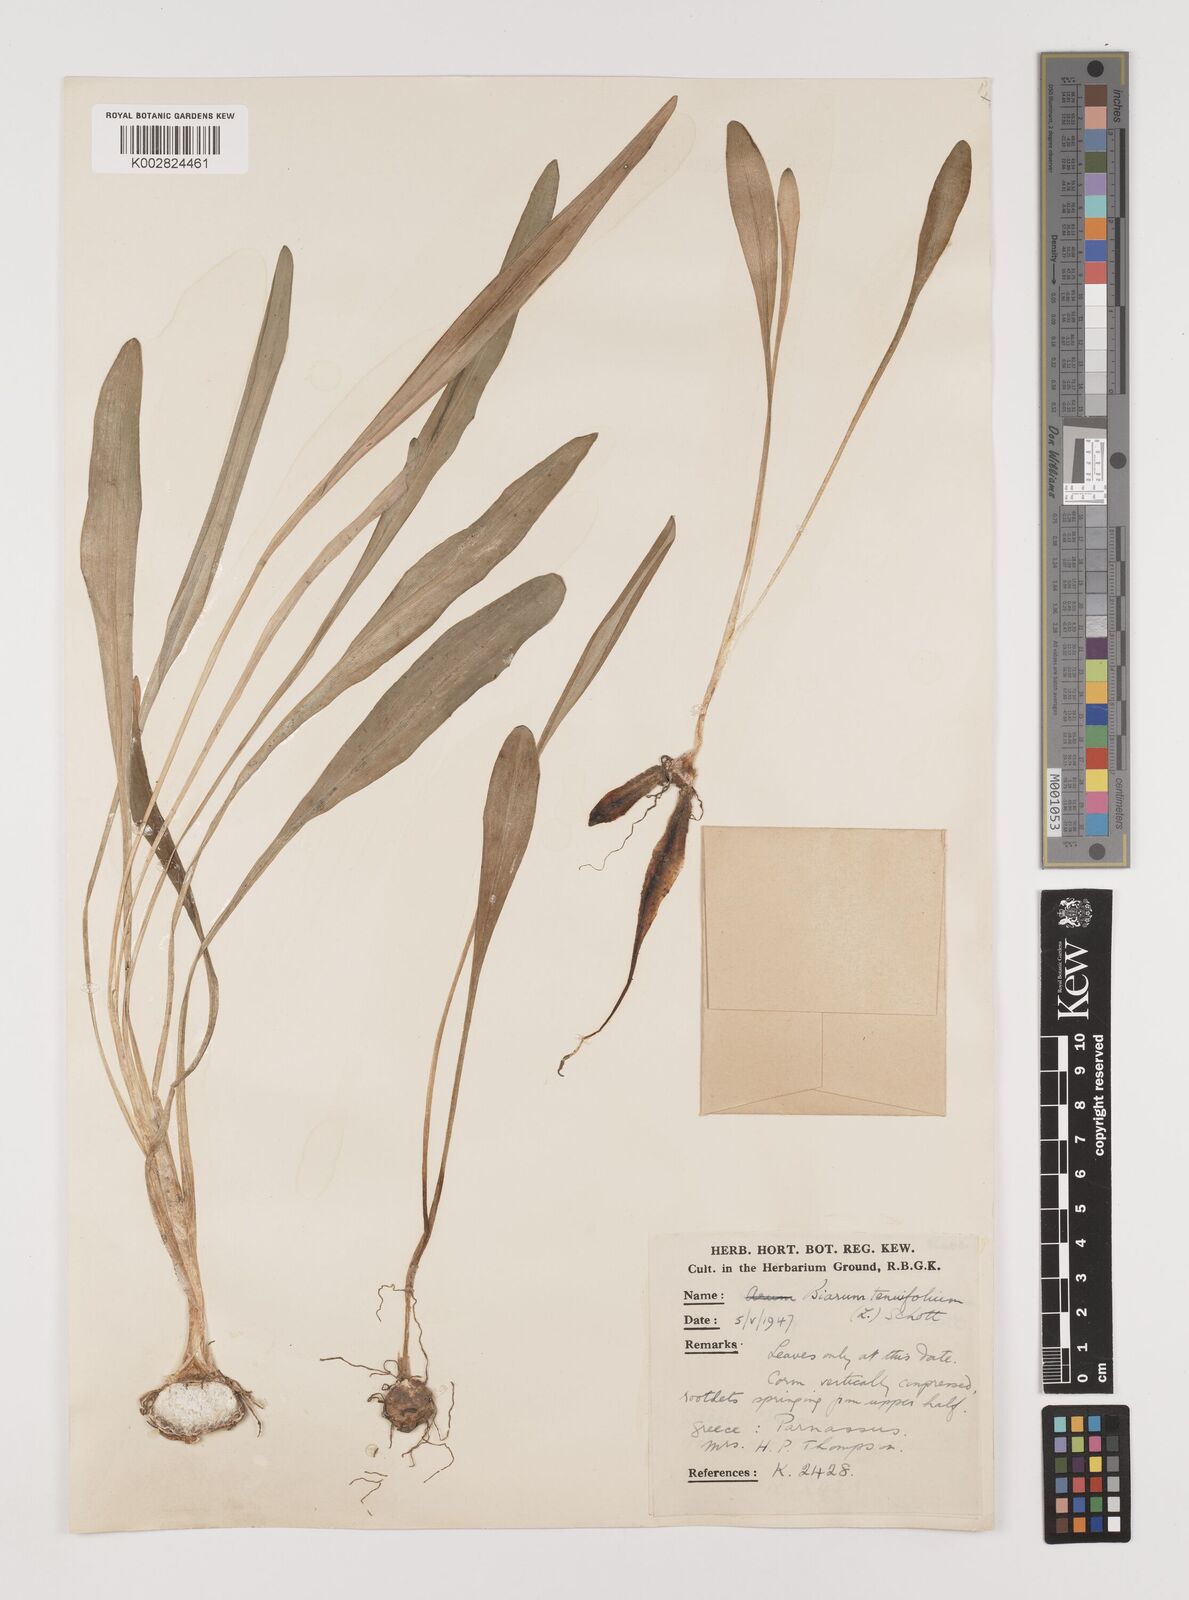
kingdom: Plantae
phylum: Tracheophyta
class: Liliopsida
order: Alismatales
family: Araceae
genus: Biarum
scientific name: Biarum tenuifolium
